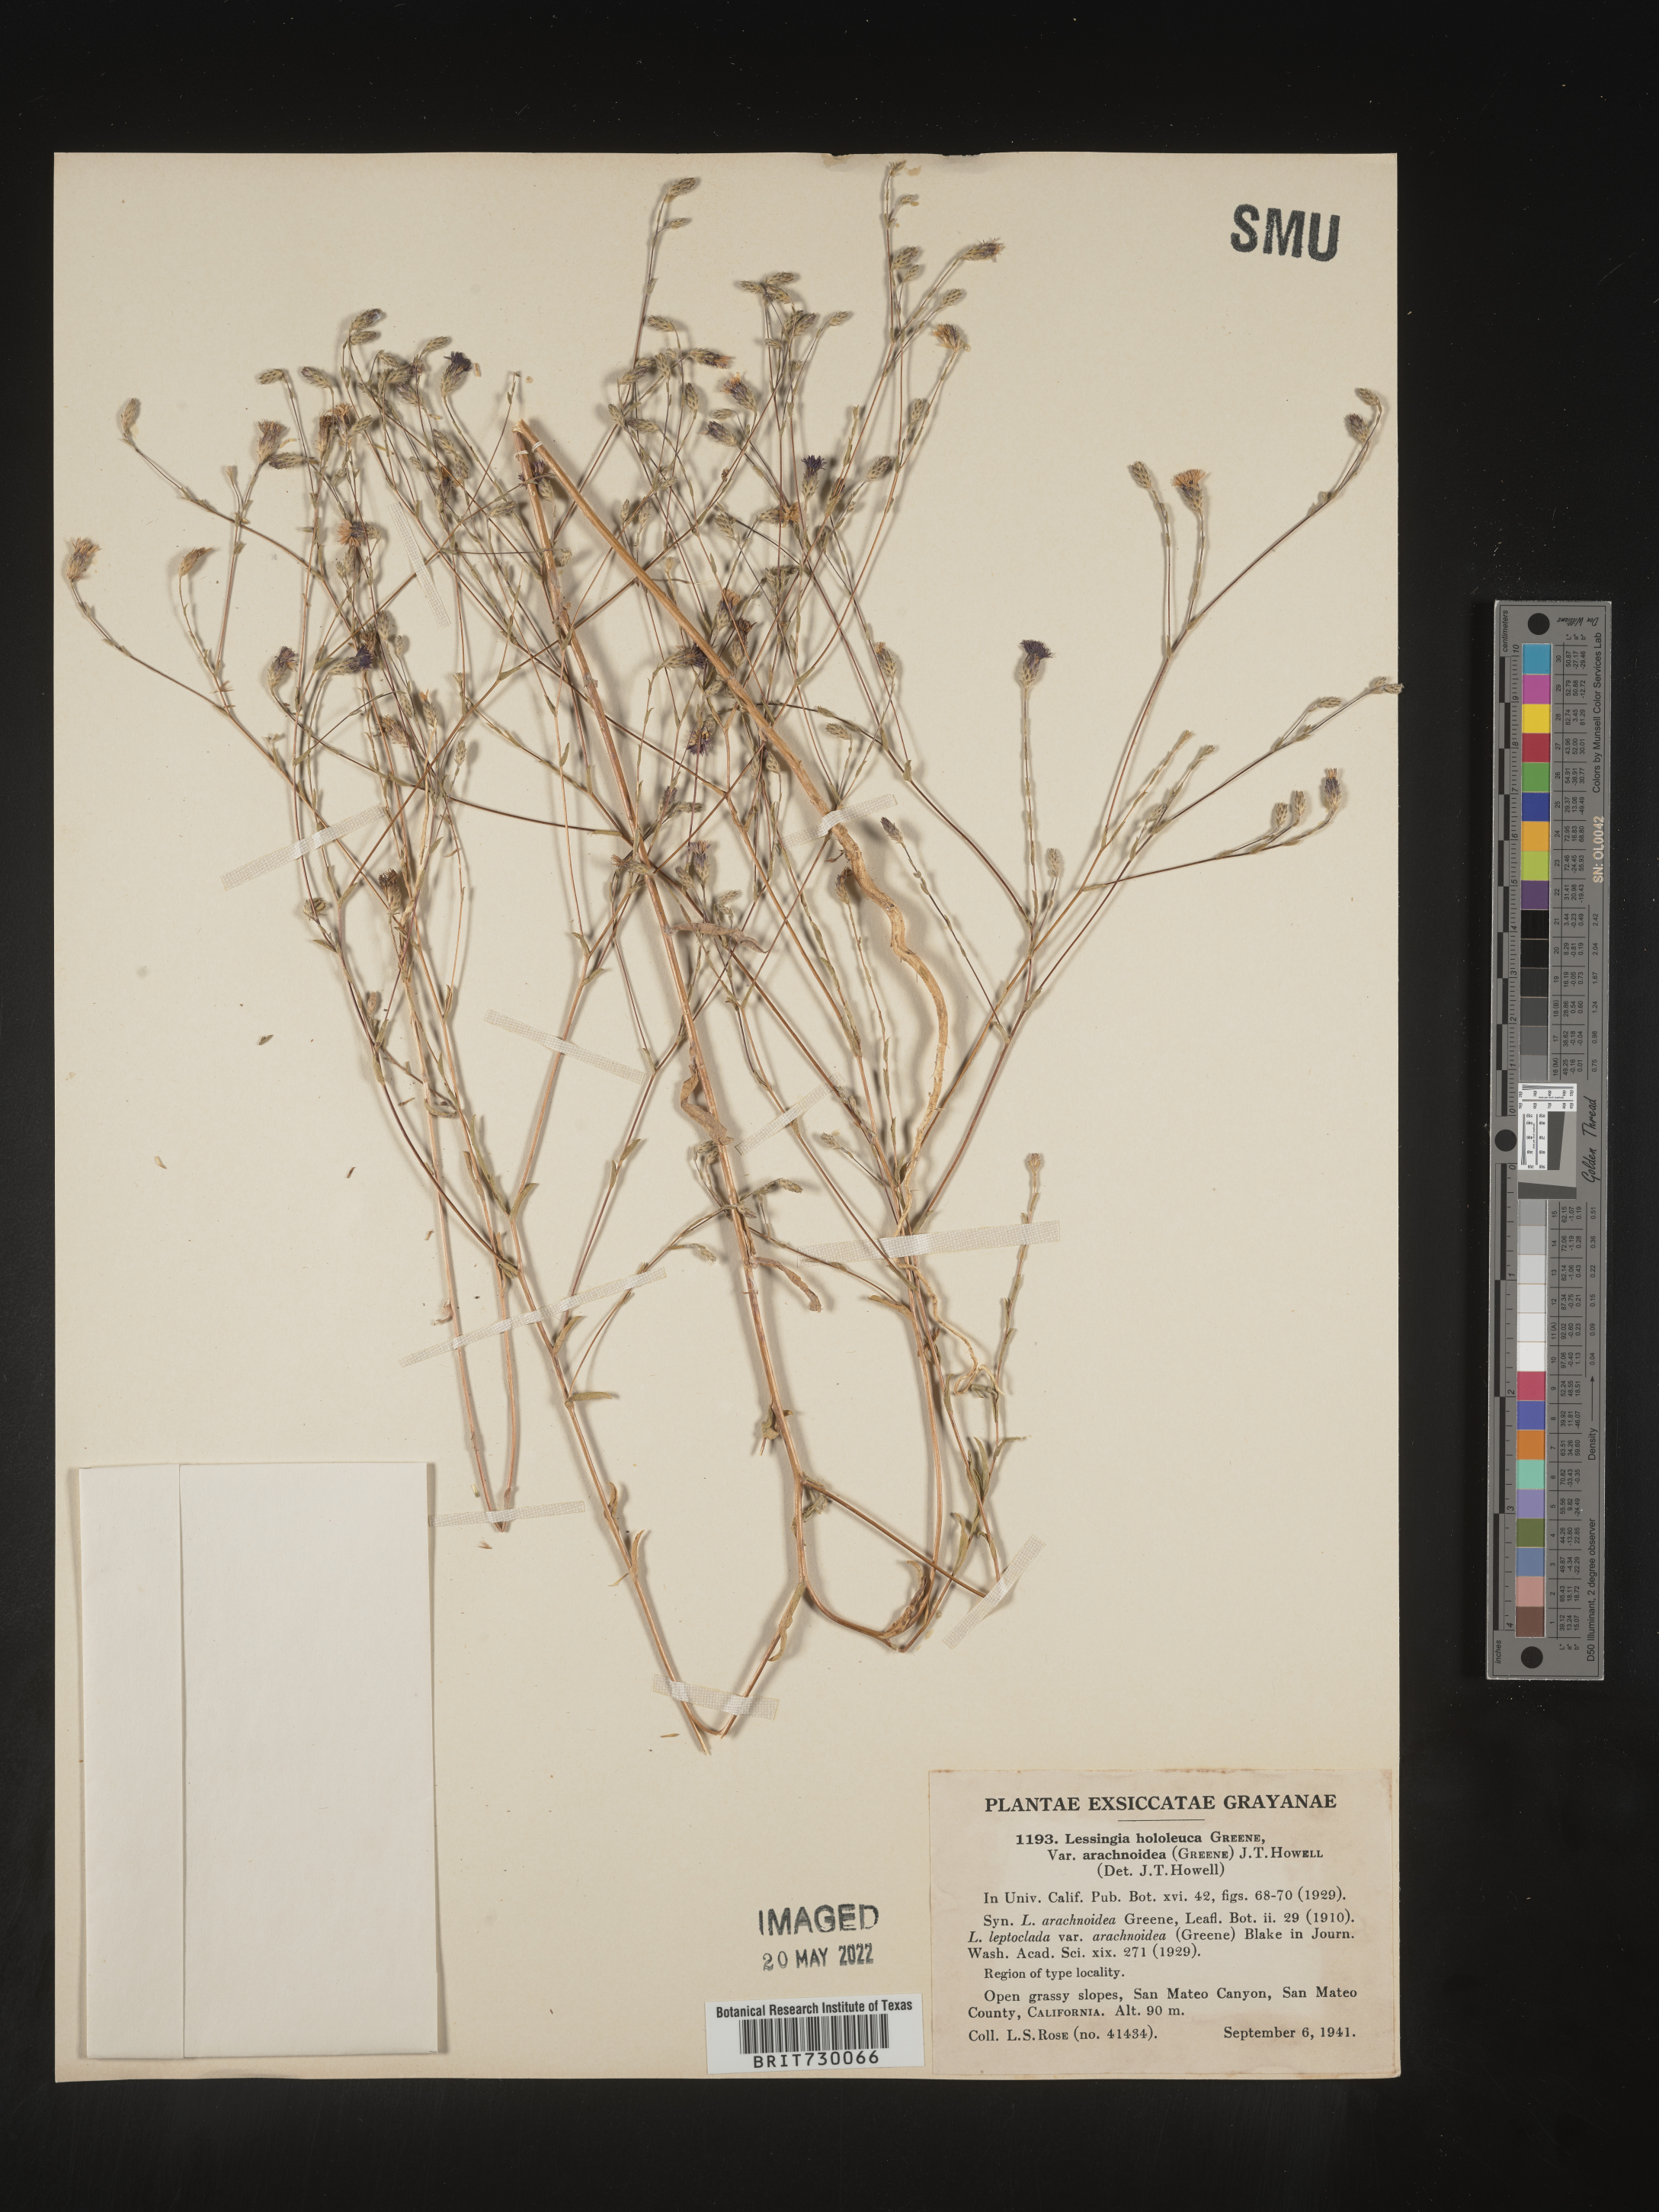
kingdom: Plantae
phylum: Tracheophyta
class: Magnoliopsida
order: Asterales
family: Asteraceae
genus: Lessingia
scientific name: Lessingia
